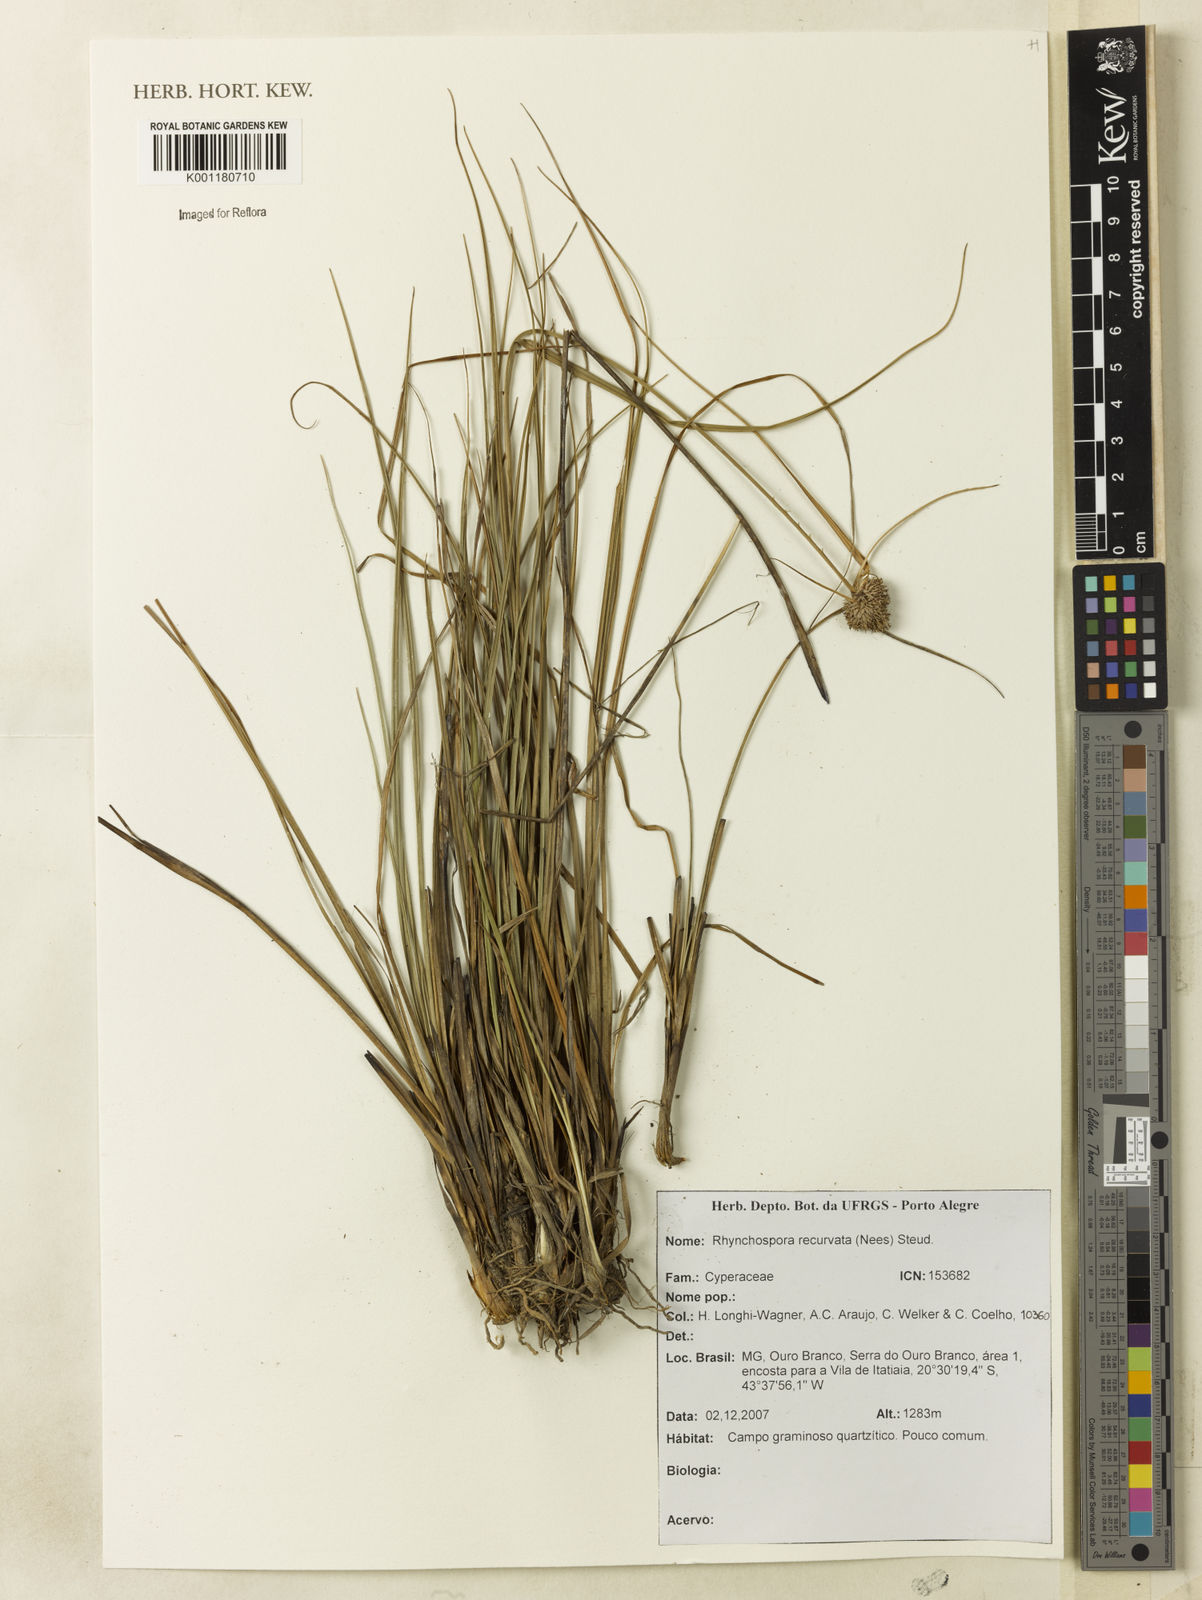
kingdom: Plantae
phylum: Tracheophyta
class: Liliopsida
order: Poales
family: Cyperaceae
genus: Rhynchospora
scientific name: Rhynchospora recurvata
